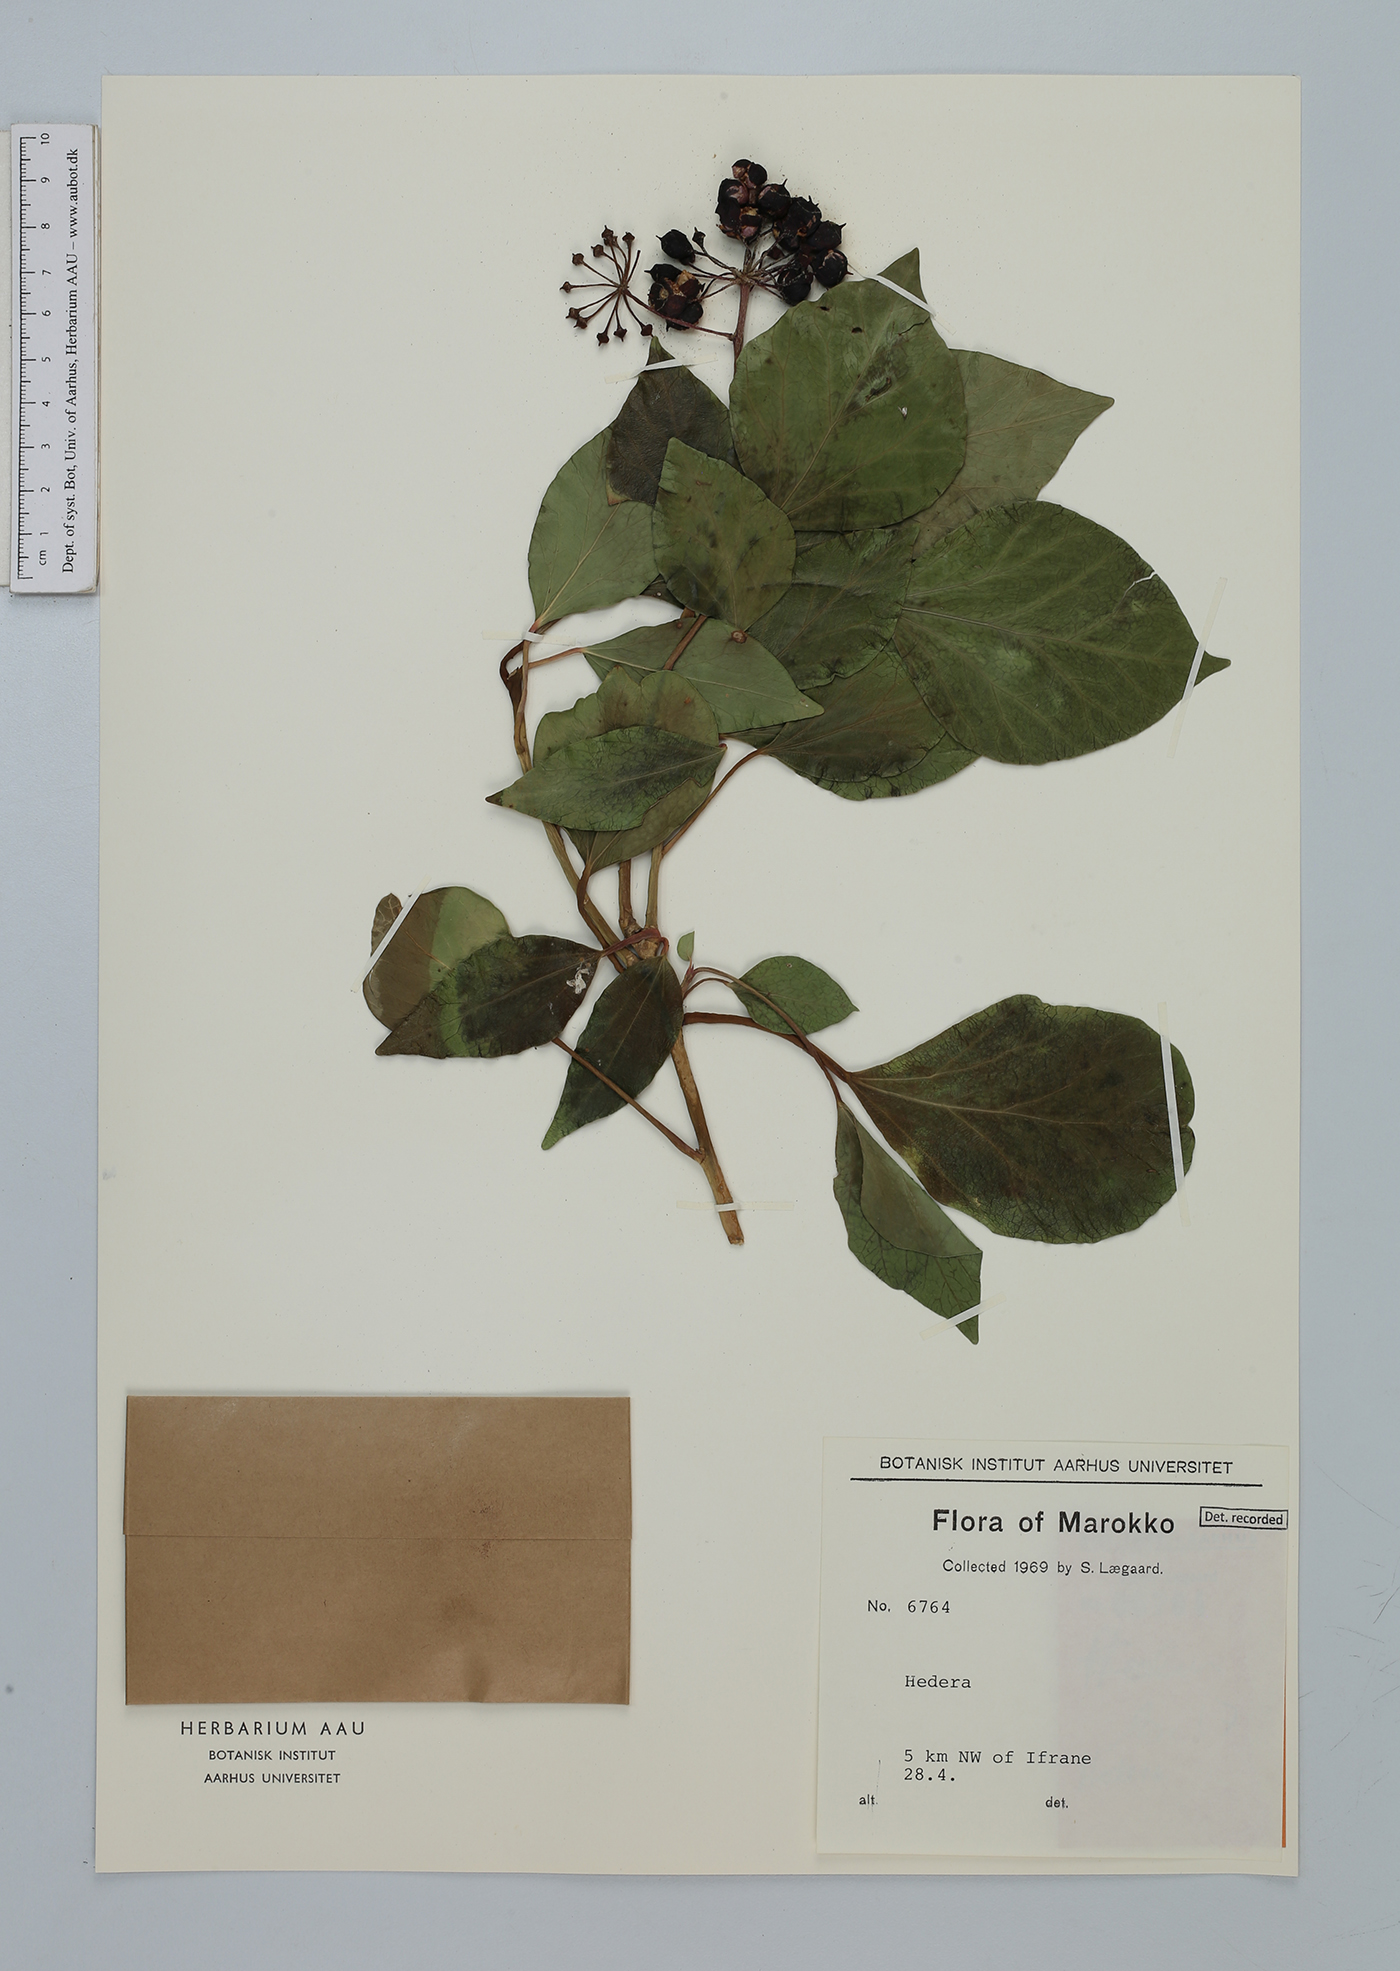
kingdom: Plantae
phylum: Tracheophyta
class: Magnoliopsida
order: Apiales
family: Araliaceae
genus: Hedera
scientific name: Hedera helix
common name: Ivy
